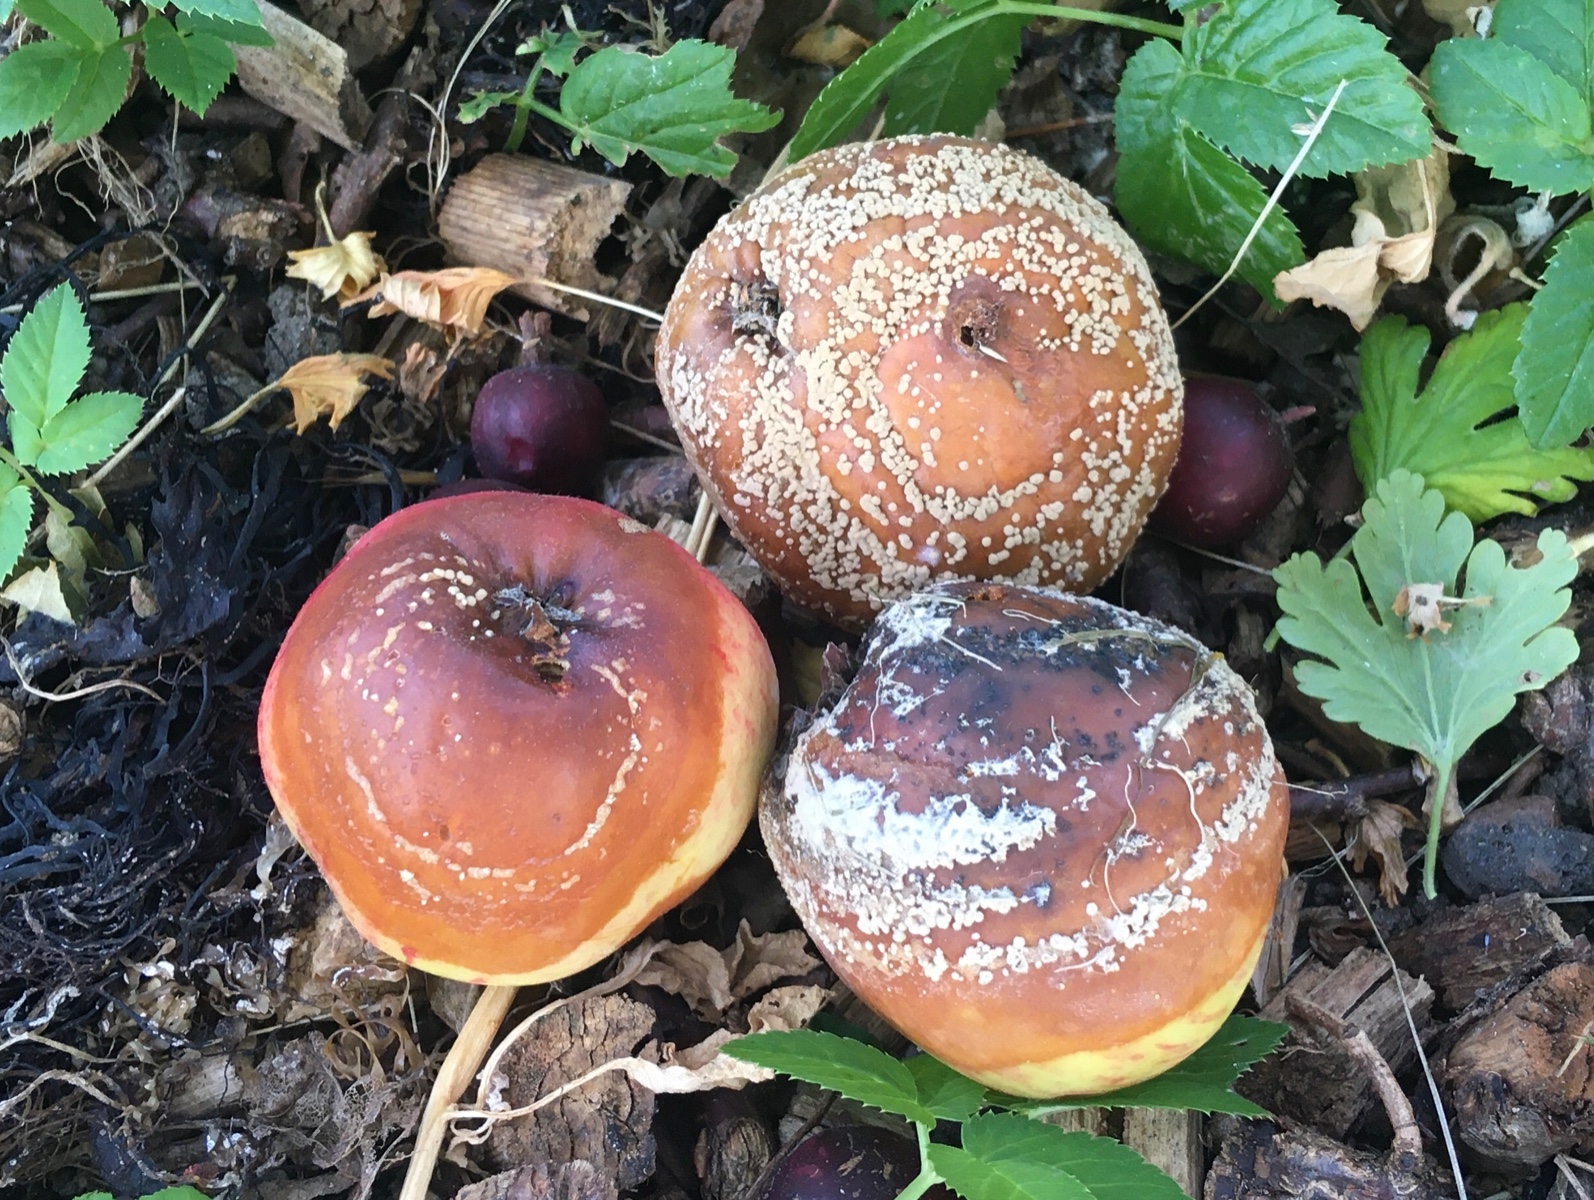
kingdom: Fungi
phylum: Ascomycota
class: Leotiomycetes
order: Helotiales
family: Sclerotiniaceae
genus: Monilinia
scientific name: Monilinia fructigena
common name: æble-knoldskive
